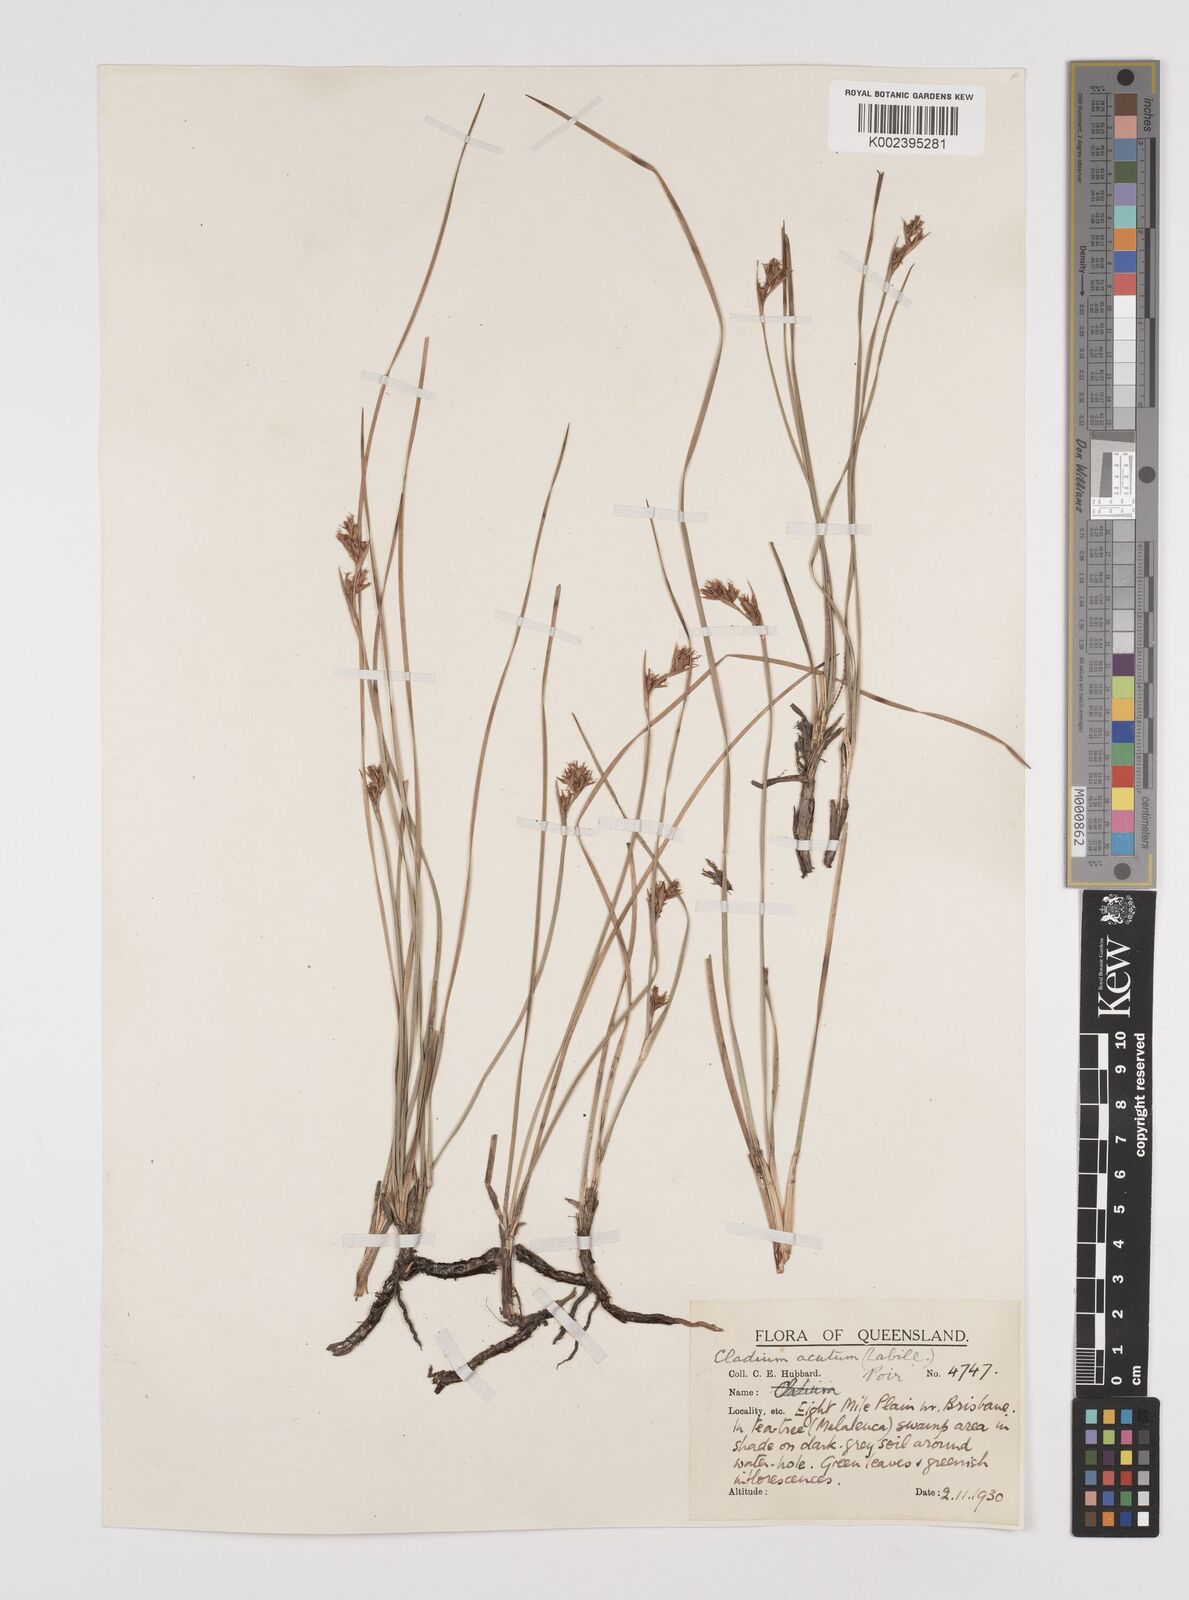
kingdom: Plantae
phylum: Tracheophyta
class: Liliopsida
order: Poales
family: Cyperaceae
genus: Machaerina
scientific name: Machaerina acuta
